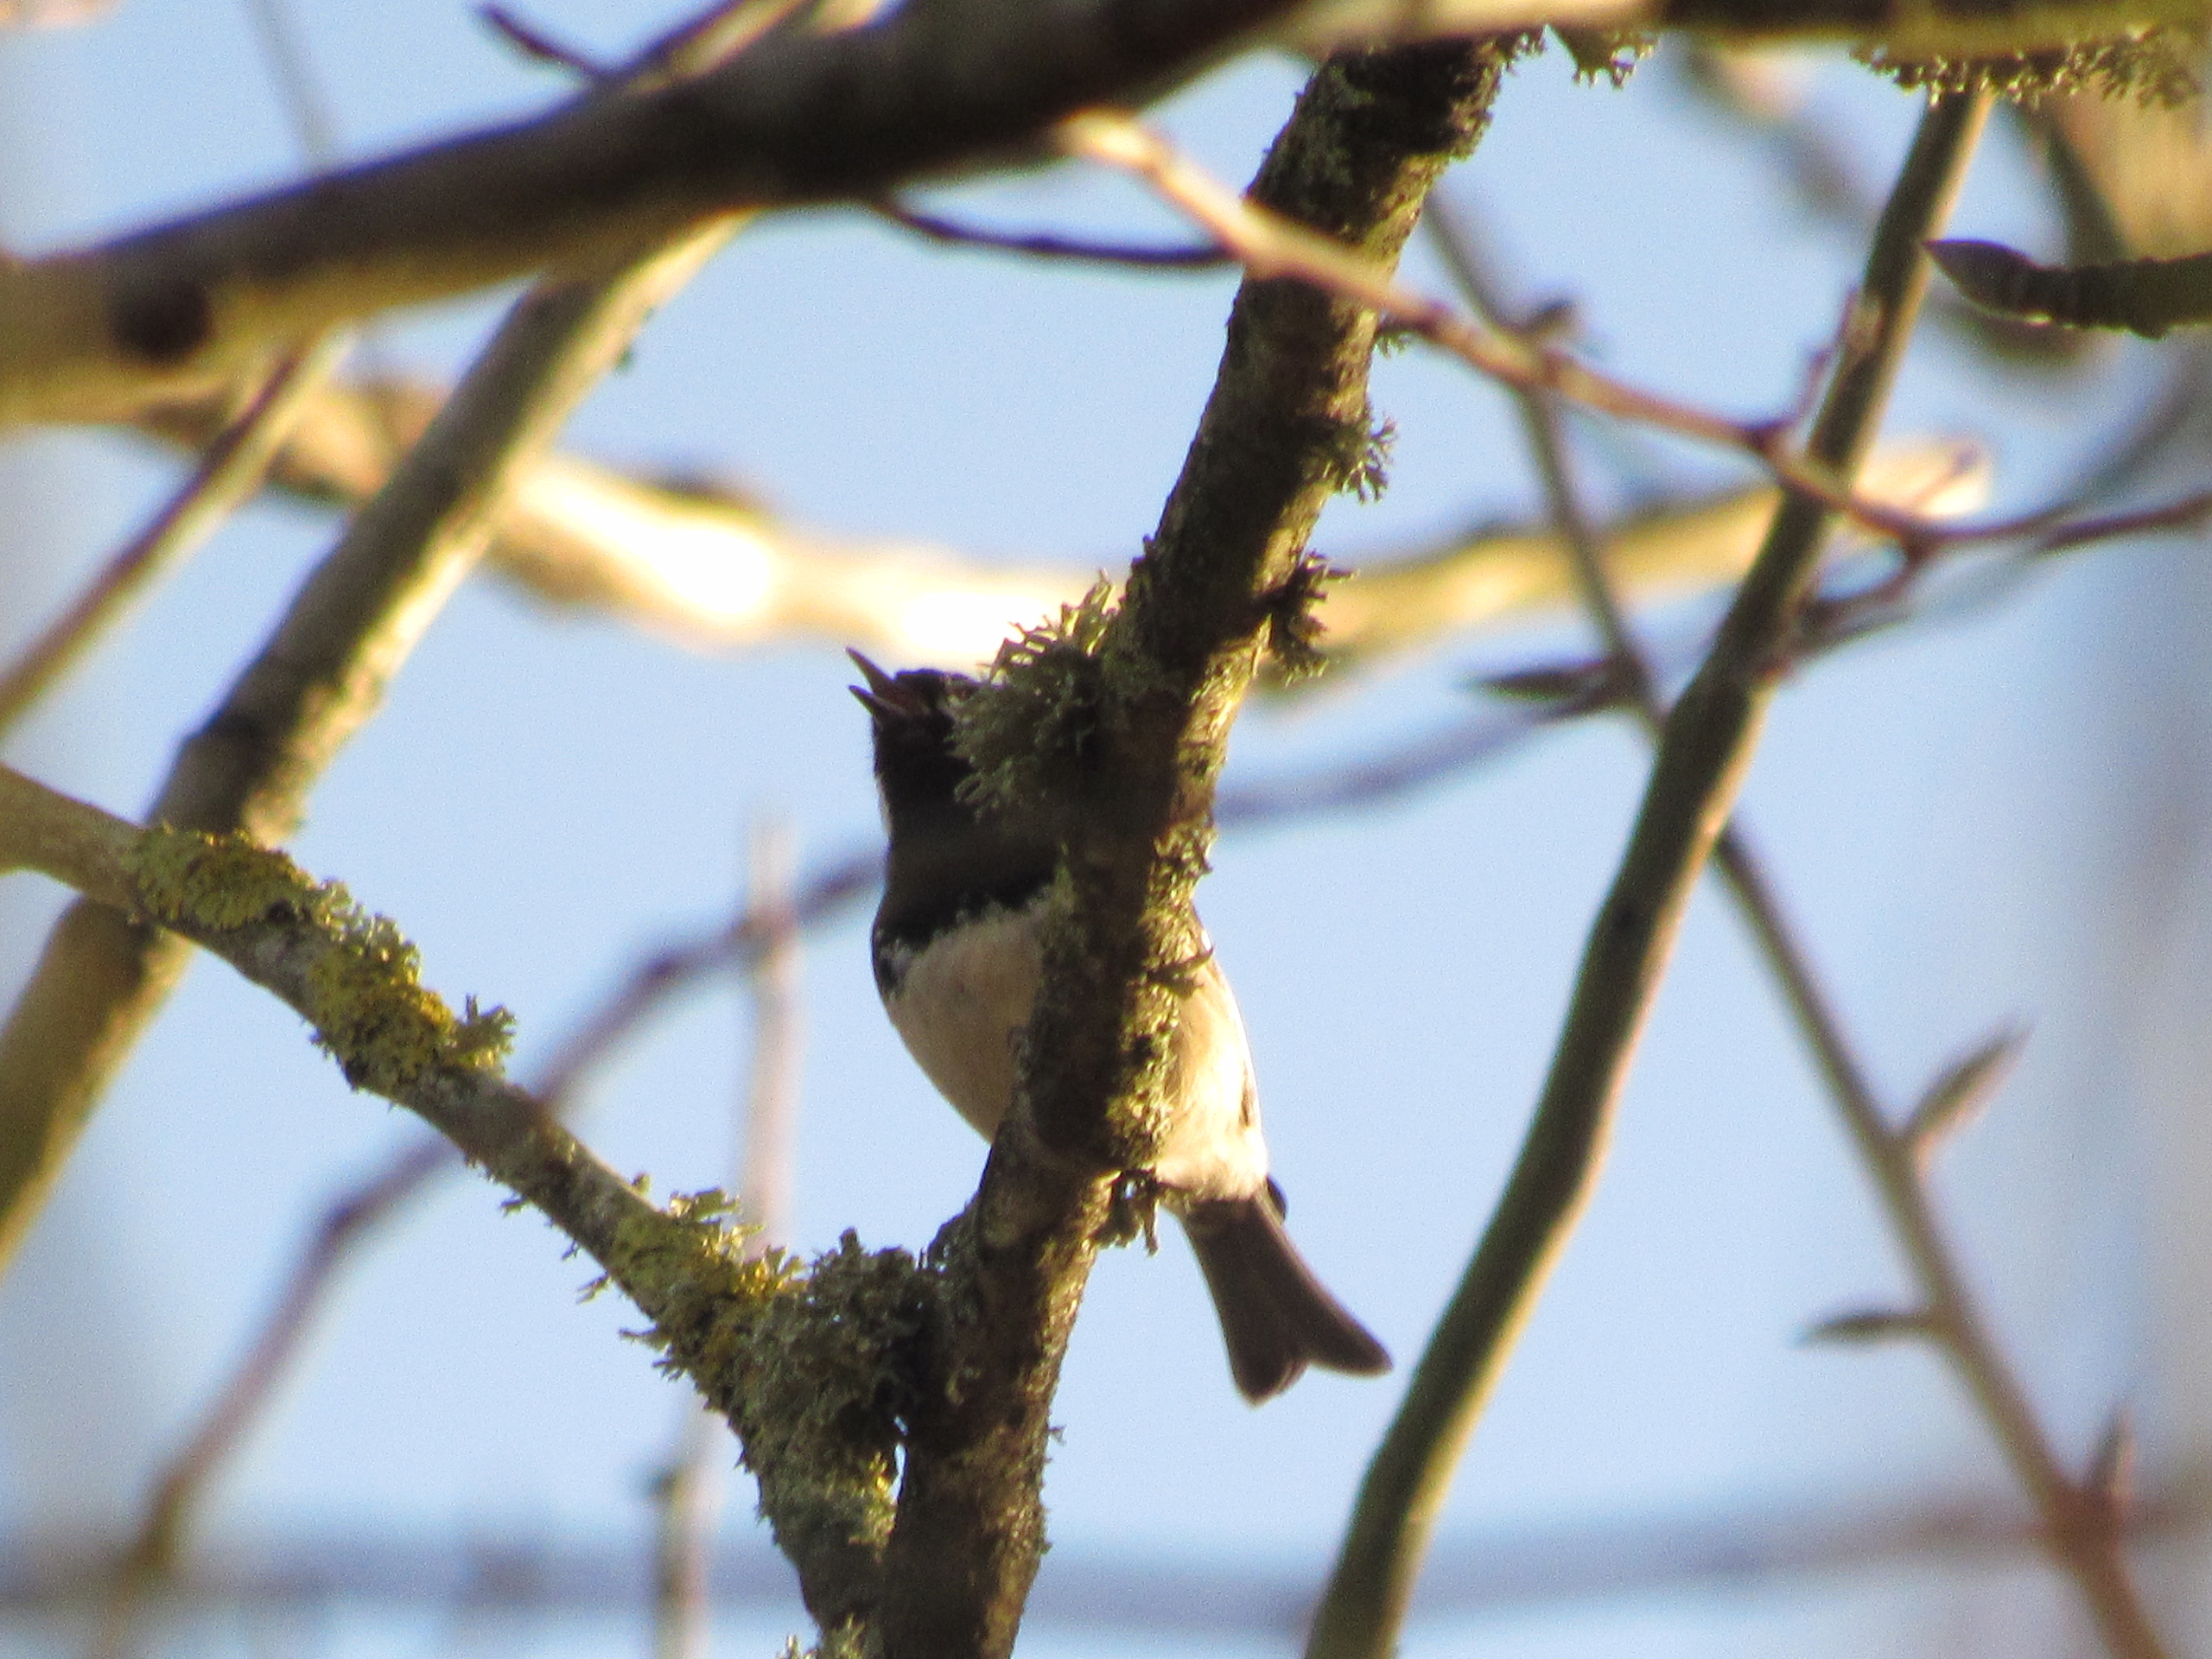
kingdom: Animalia
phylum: Chordata
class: Aves
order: Passeriformes
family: Paridae
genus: Periparus
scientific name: Periparus ater
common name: Sortmejse
